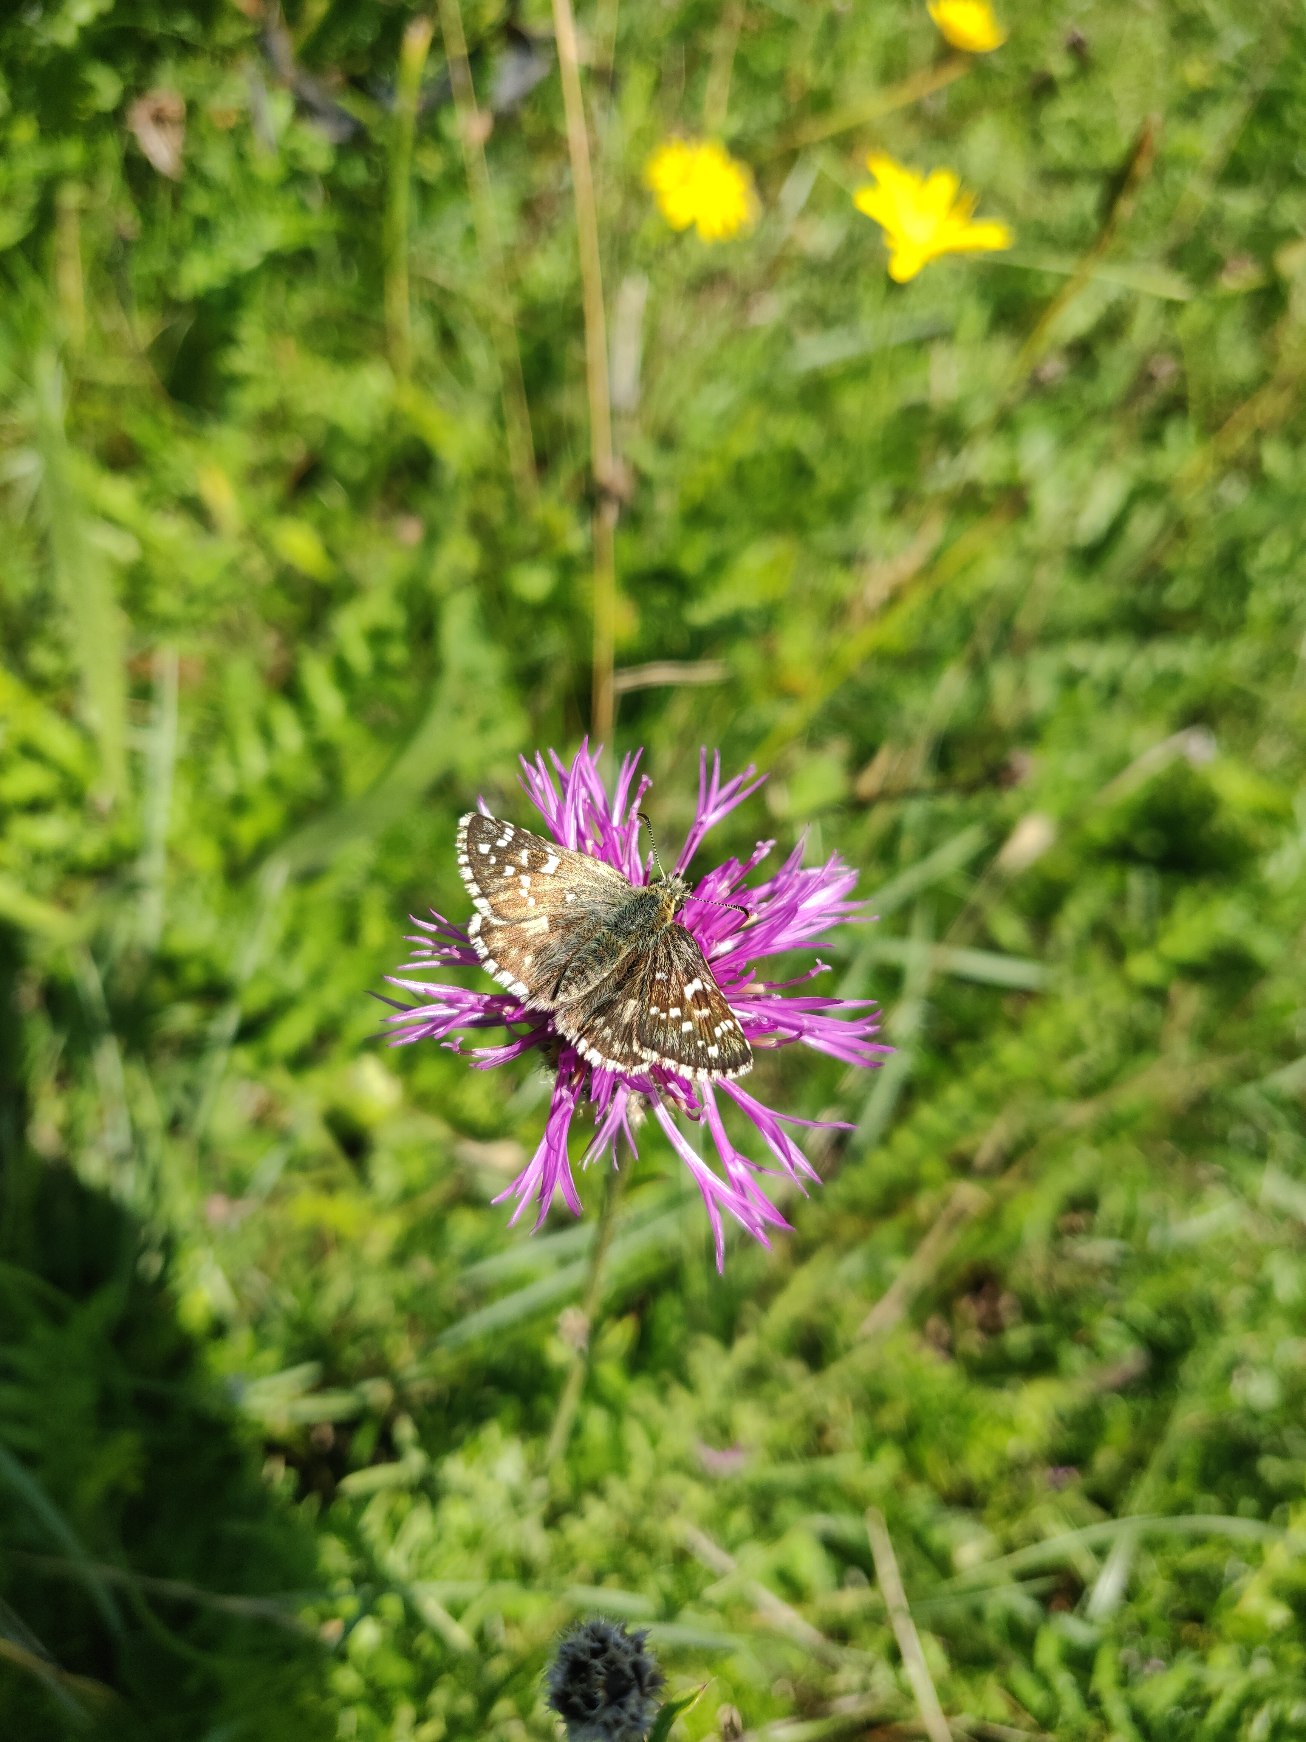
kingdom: Animalia
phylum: Arthropoda
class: Insecta
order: Lepidoptera
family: Hesperiidae
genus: Pyrgus
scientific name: Pyrgus armoricanus
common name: Fransk bredpande
